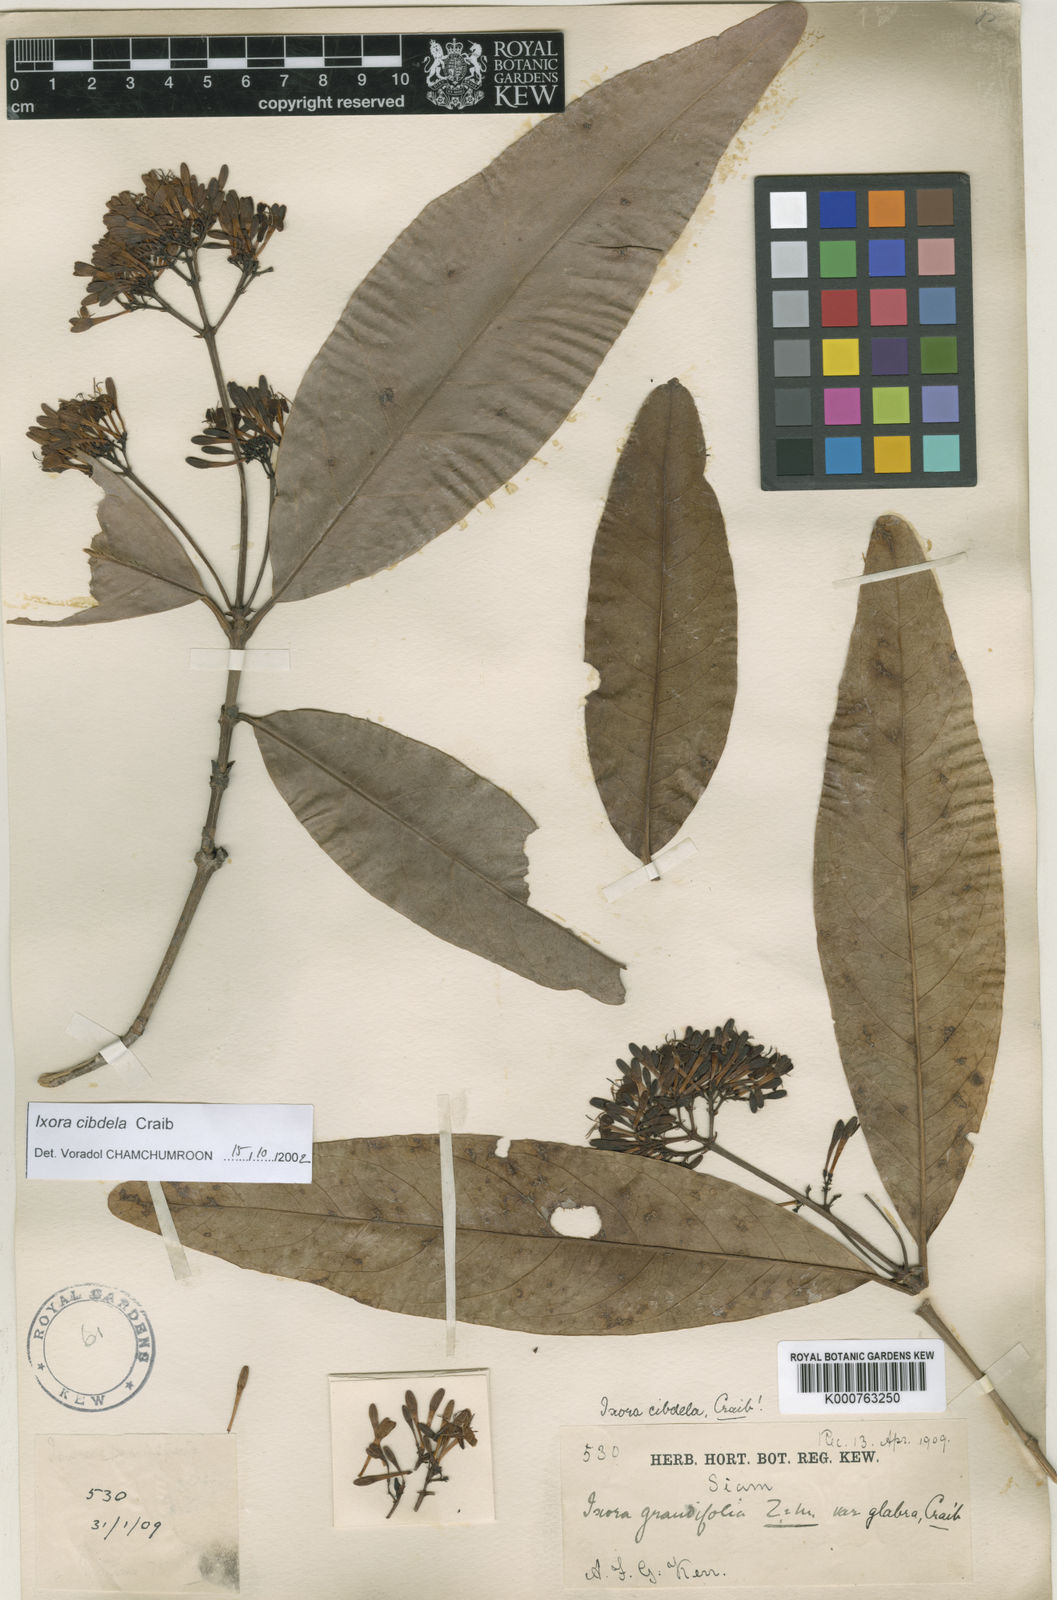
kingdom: Plantae
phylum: Tracheophyta
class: Magnoliopsida
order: Gentianales
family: Rubiaceae
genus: Ixora
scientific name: Ixora cibdela
